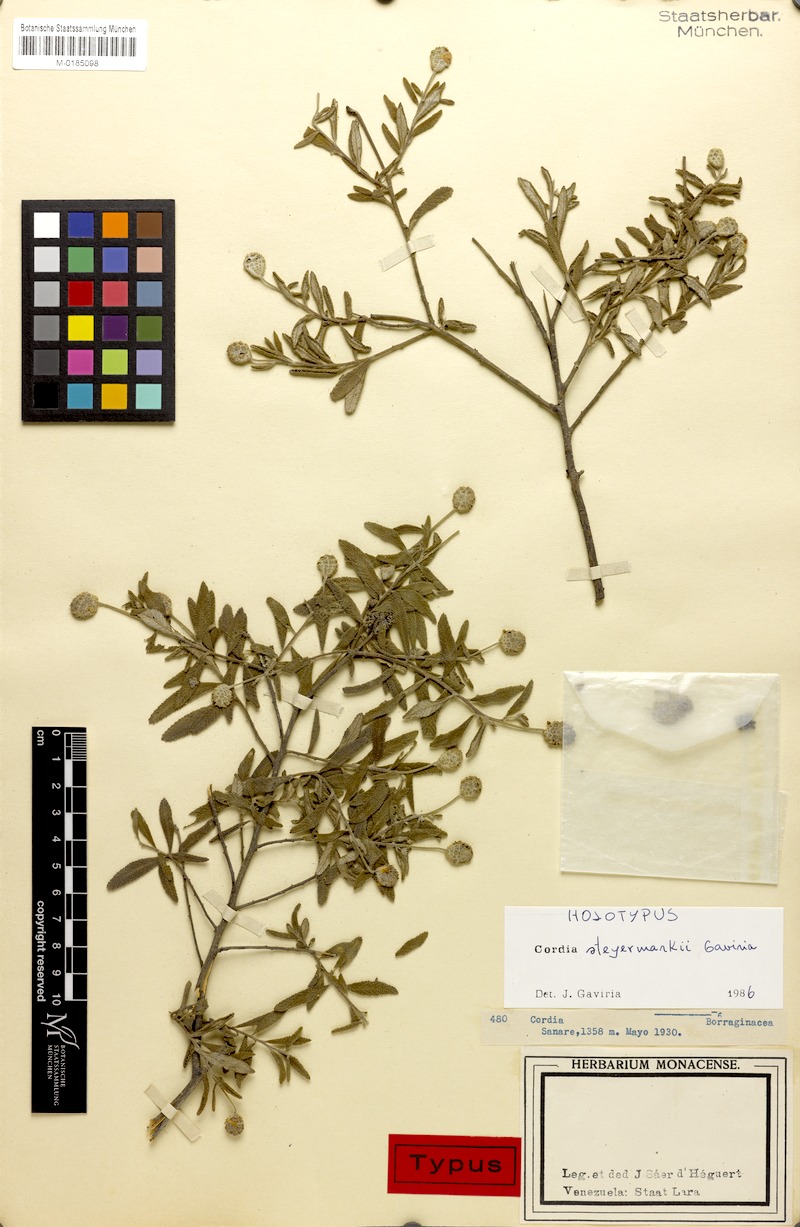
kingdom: Plantae
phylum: Tracheophyta
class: Magnoliopsida
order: Boraginales
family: Cordiaceae
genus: Varronia
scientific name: Varronia steyermarkii
